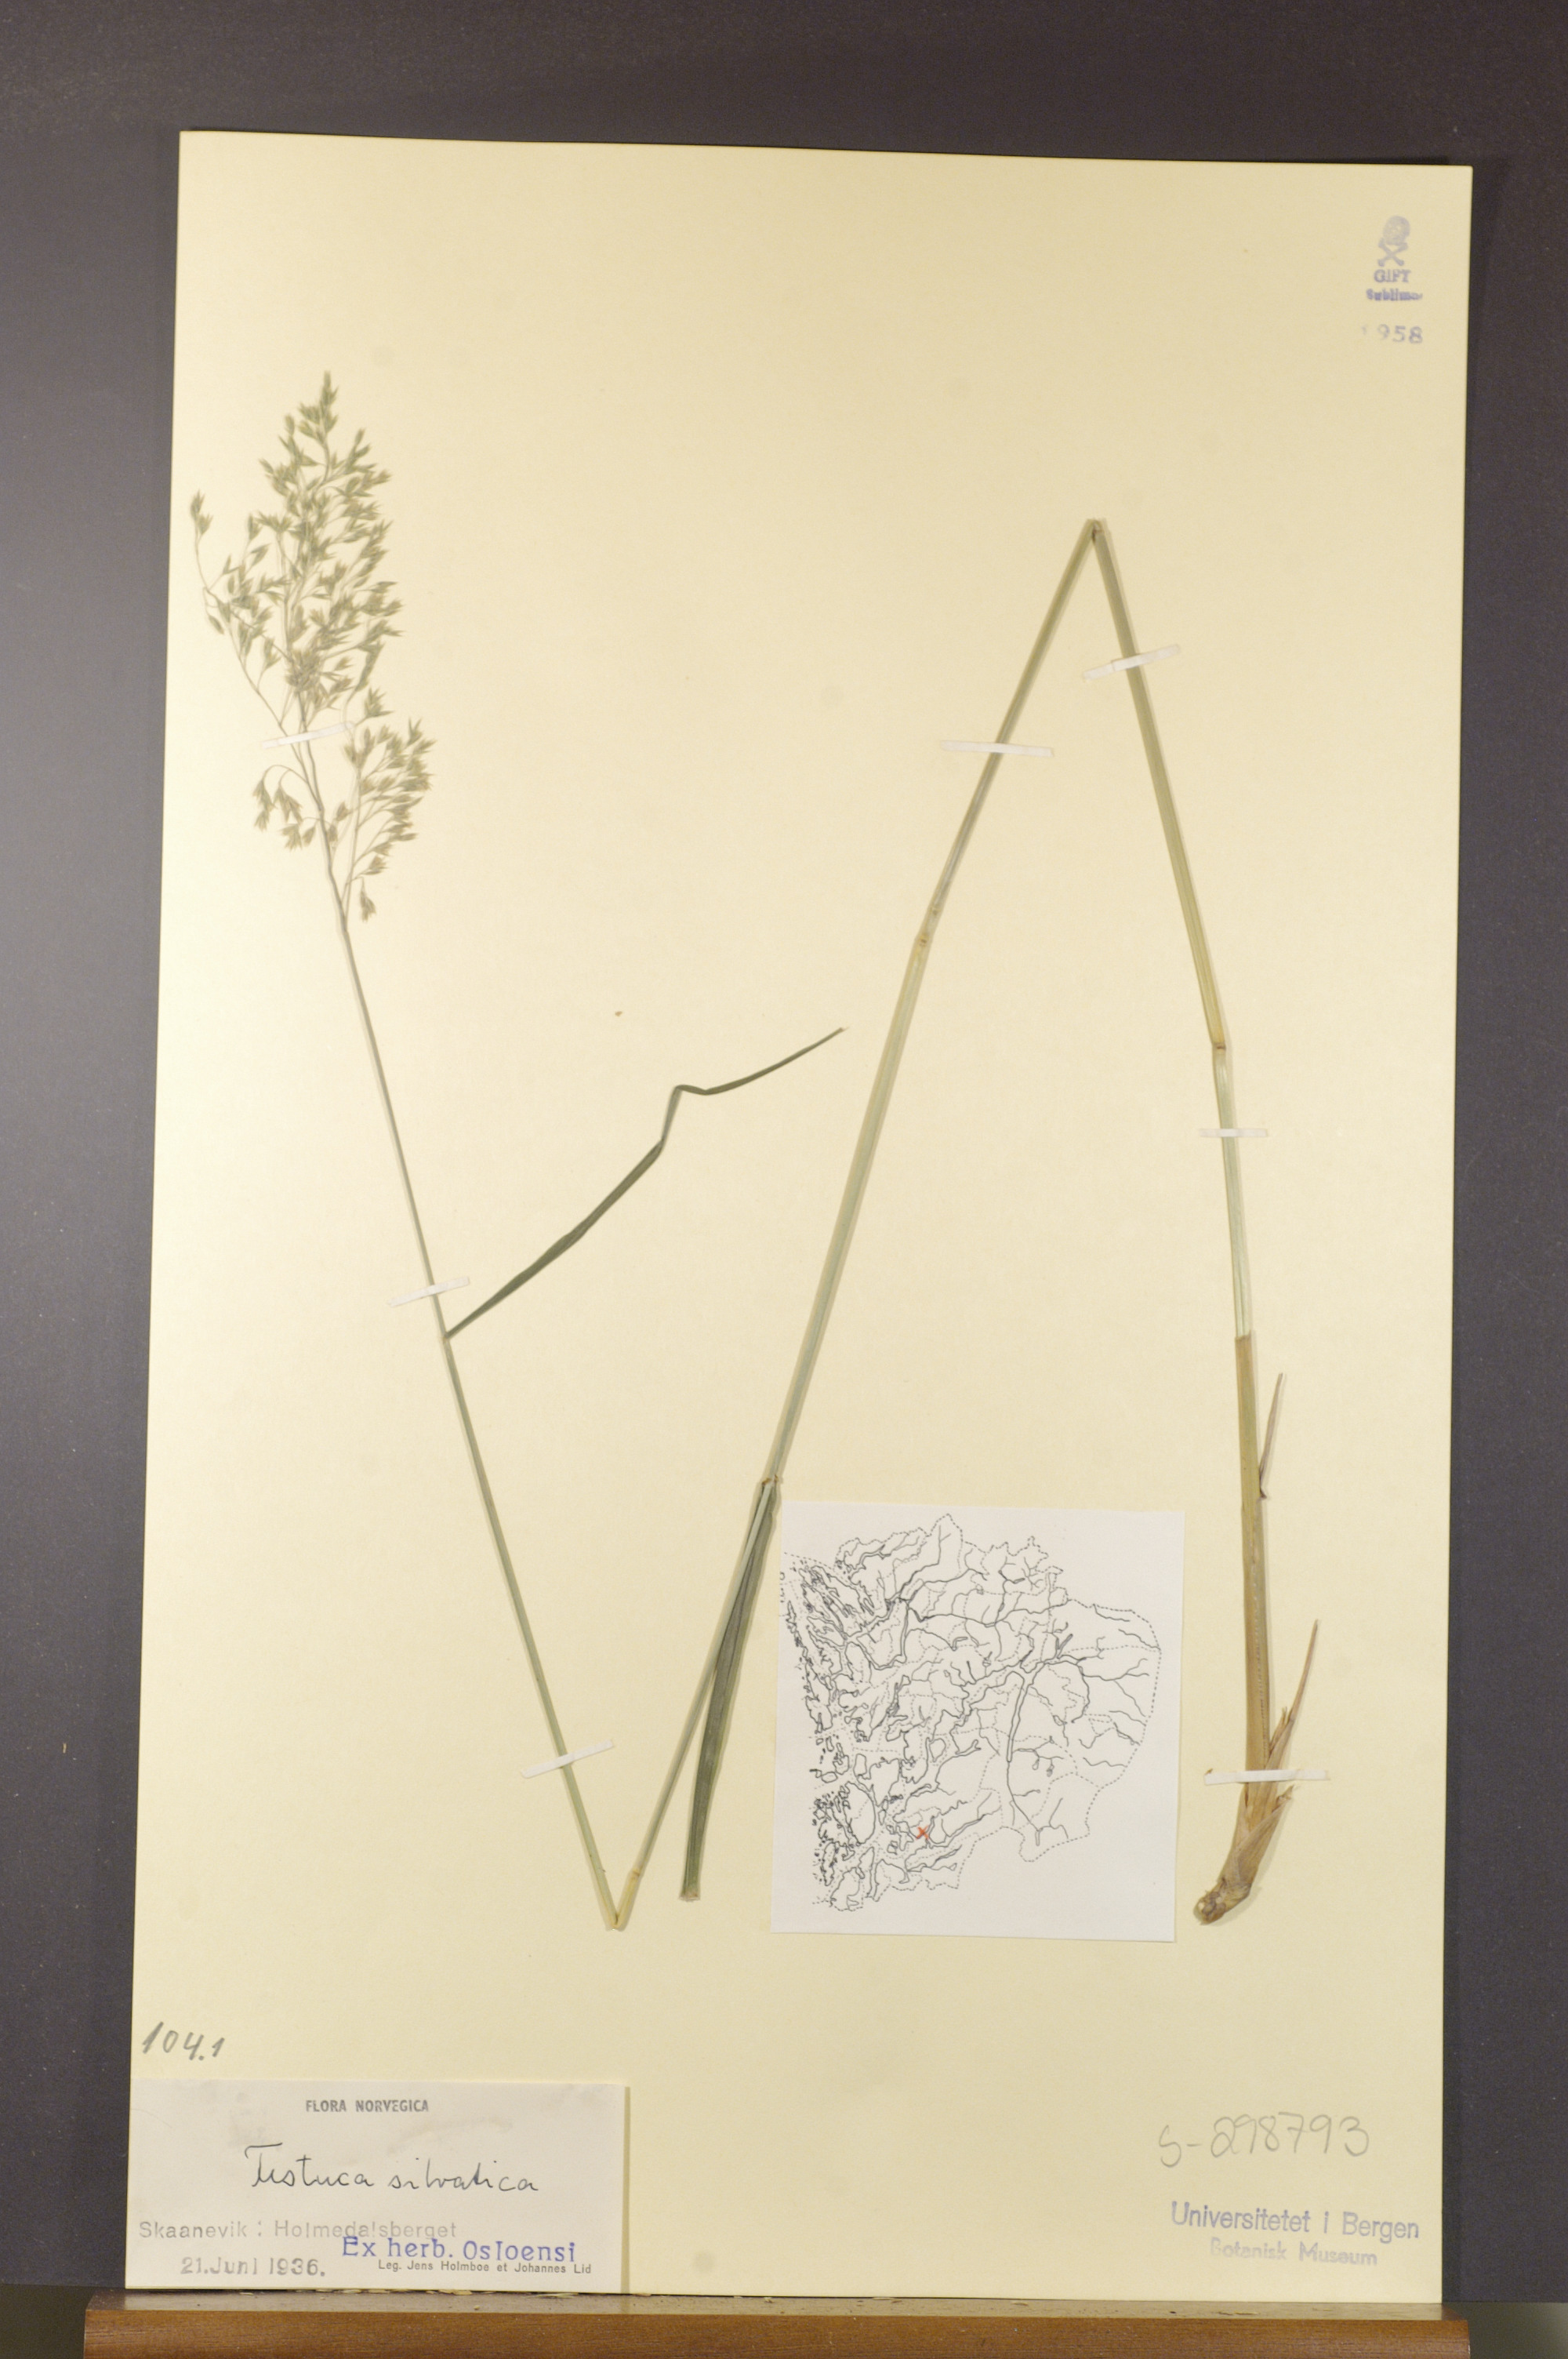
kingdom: Plantae
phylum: Tracheophyta
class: Liliopsida
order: Poales
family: Poaceae
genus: Festuca
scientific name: Festuca altissima
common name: Wood fescue
